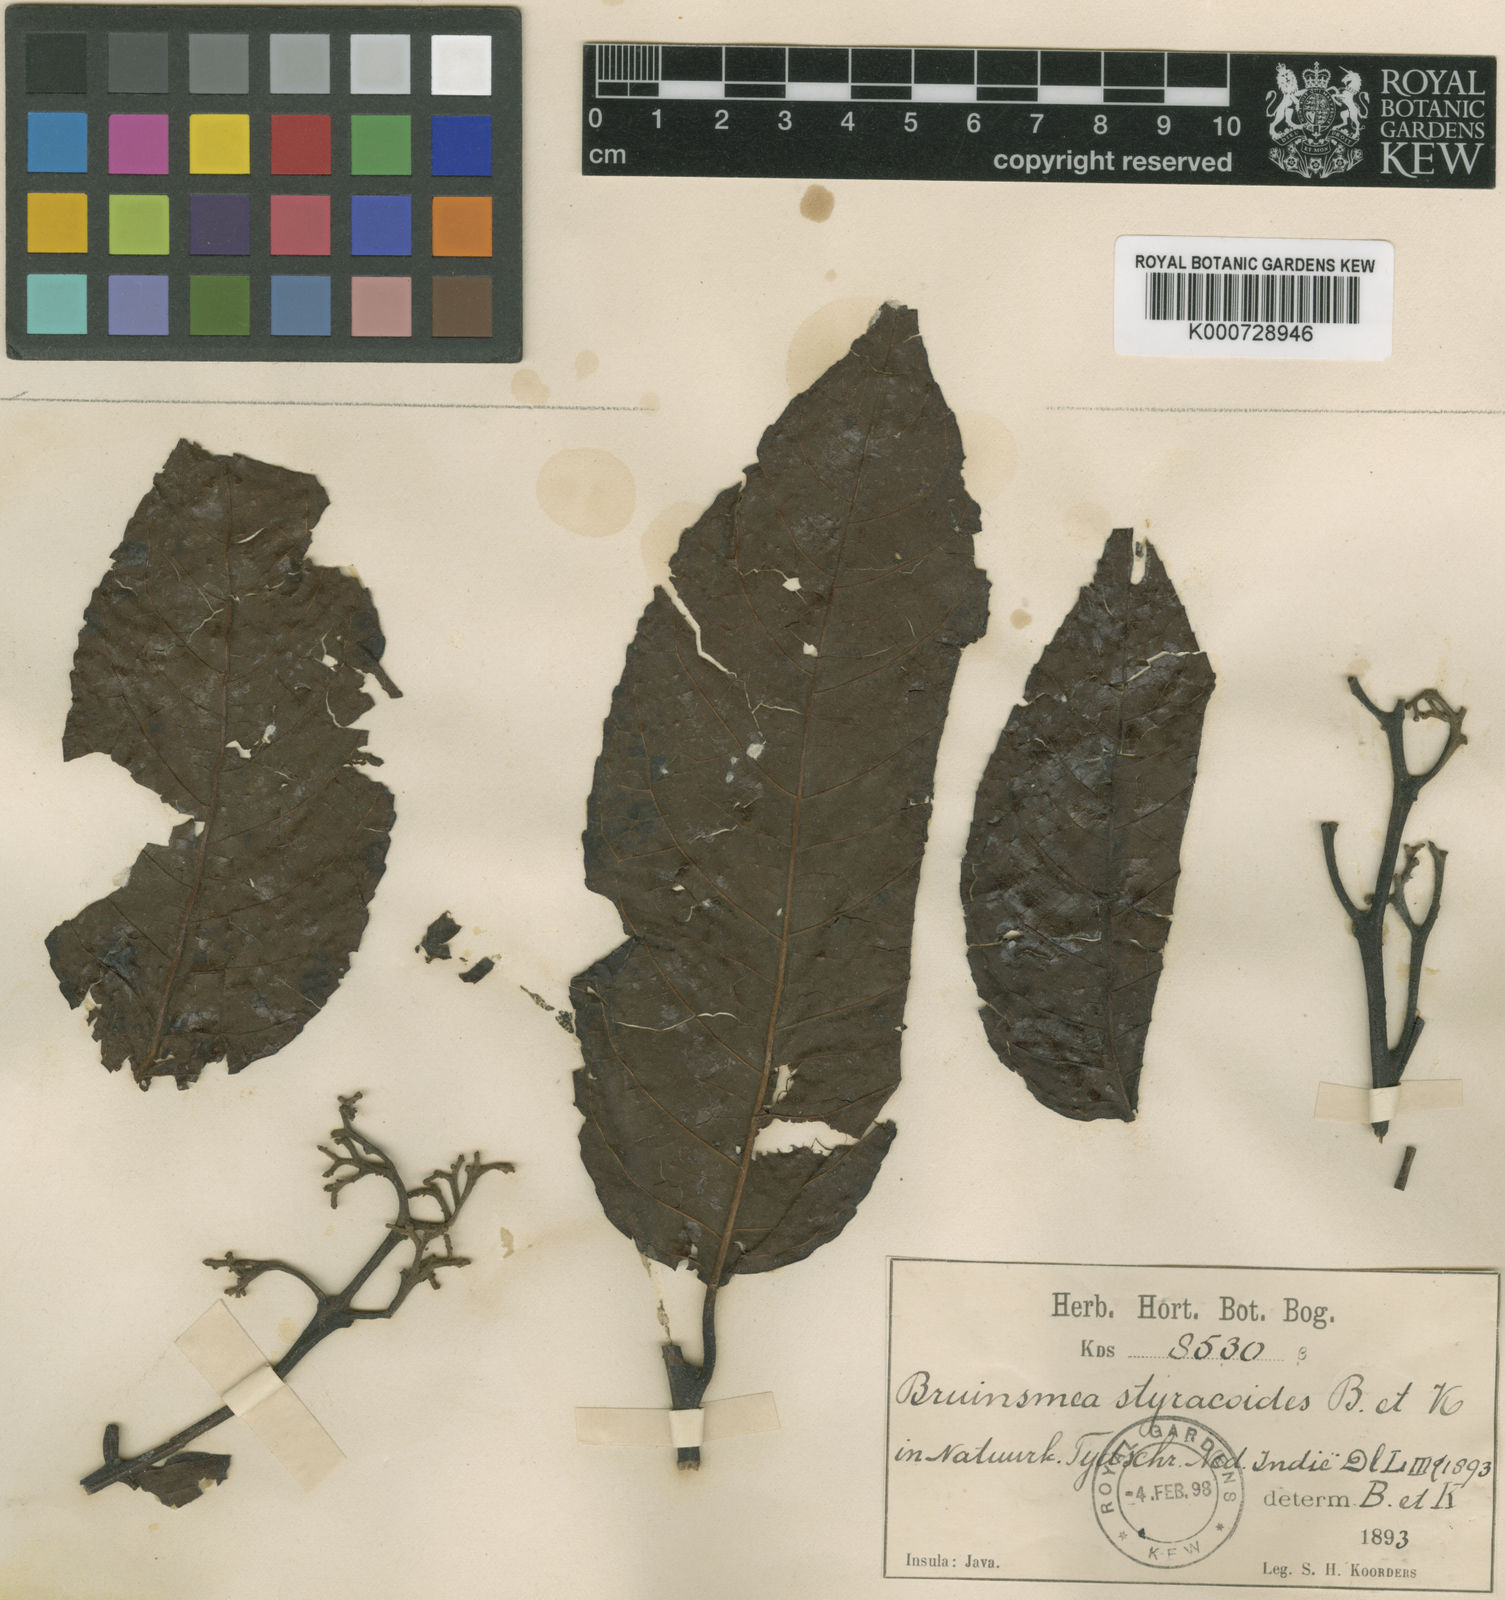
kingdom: Plantae
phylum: Tracheophyta
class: Magnoliopsida
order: Ericales
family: Styracaceae
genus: Bruinsmia
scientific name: Bruinsmia styracoides
